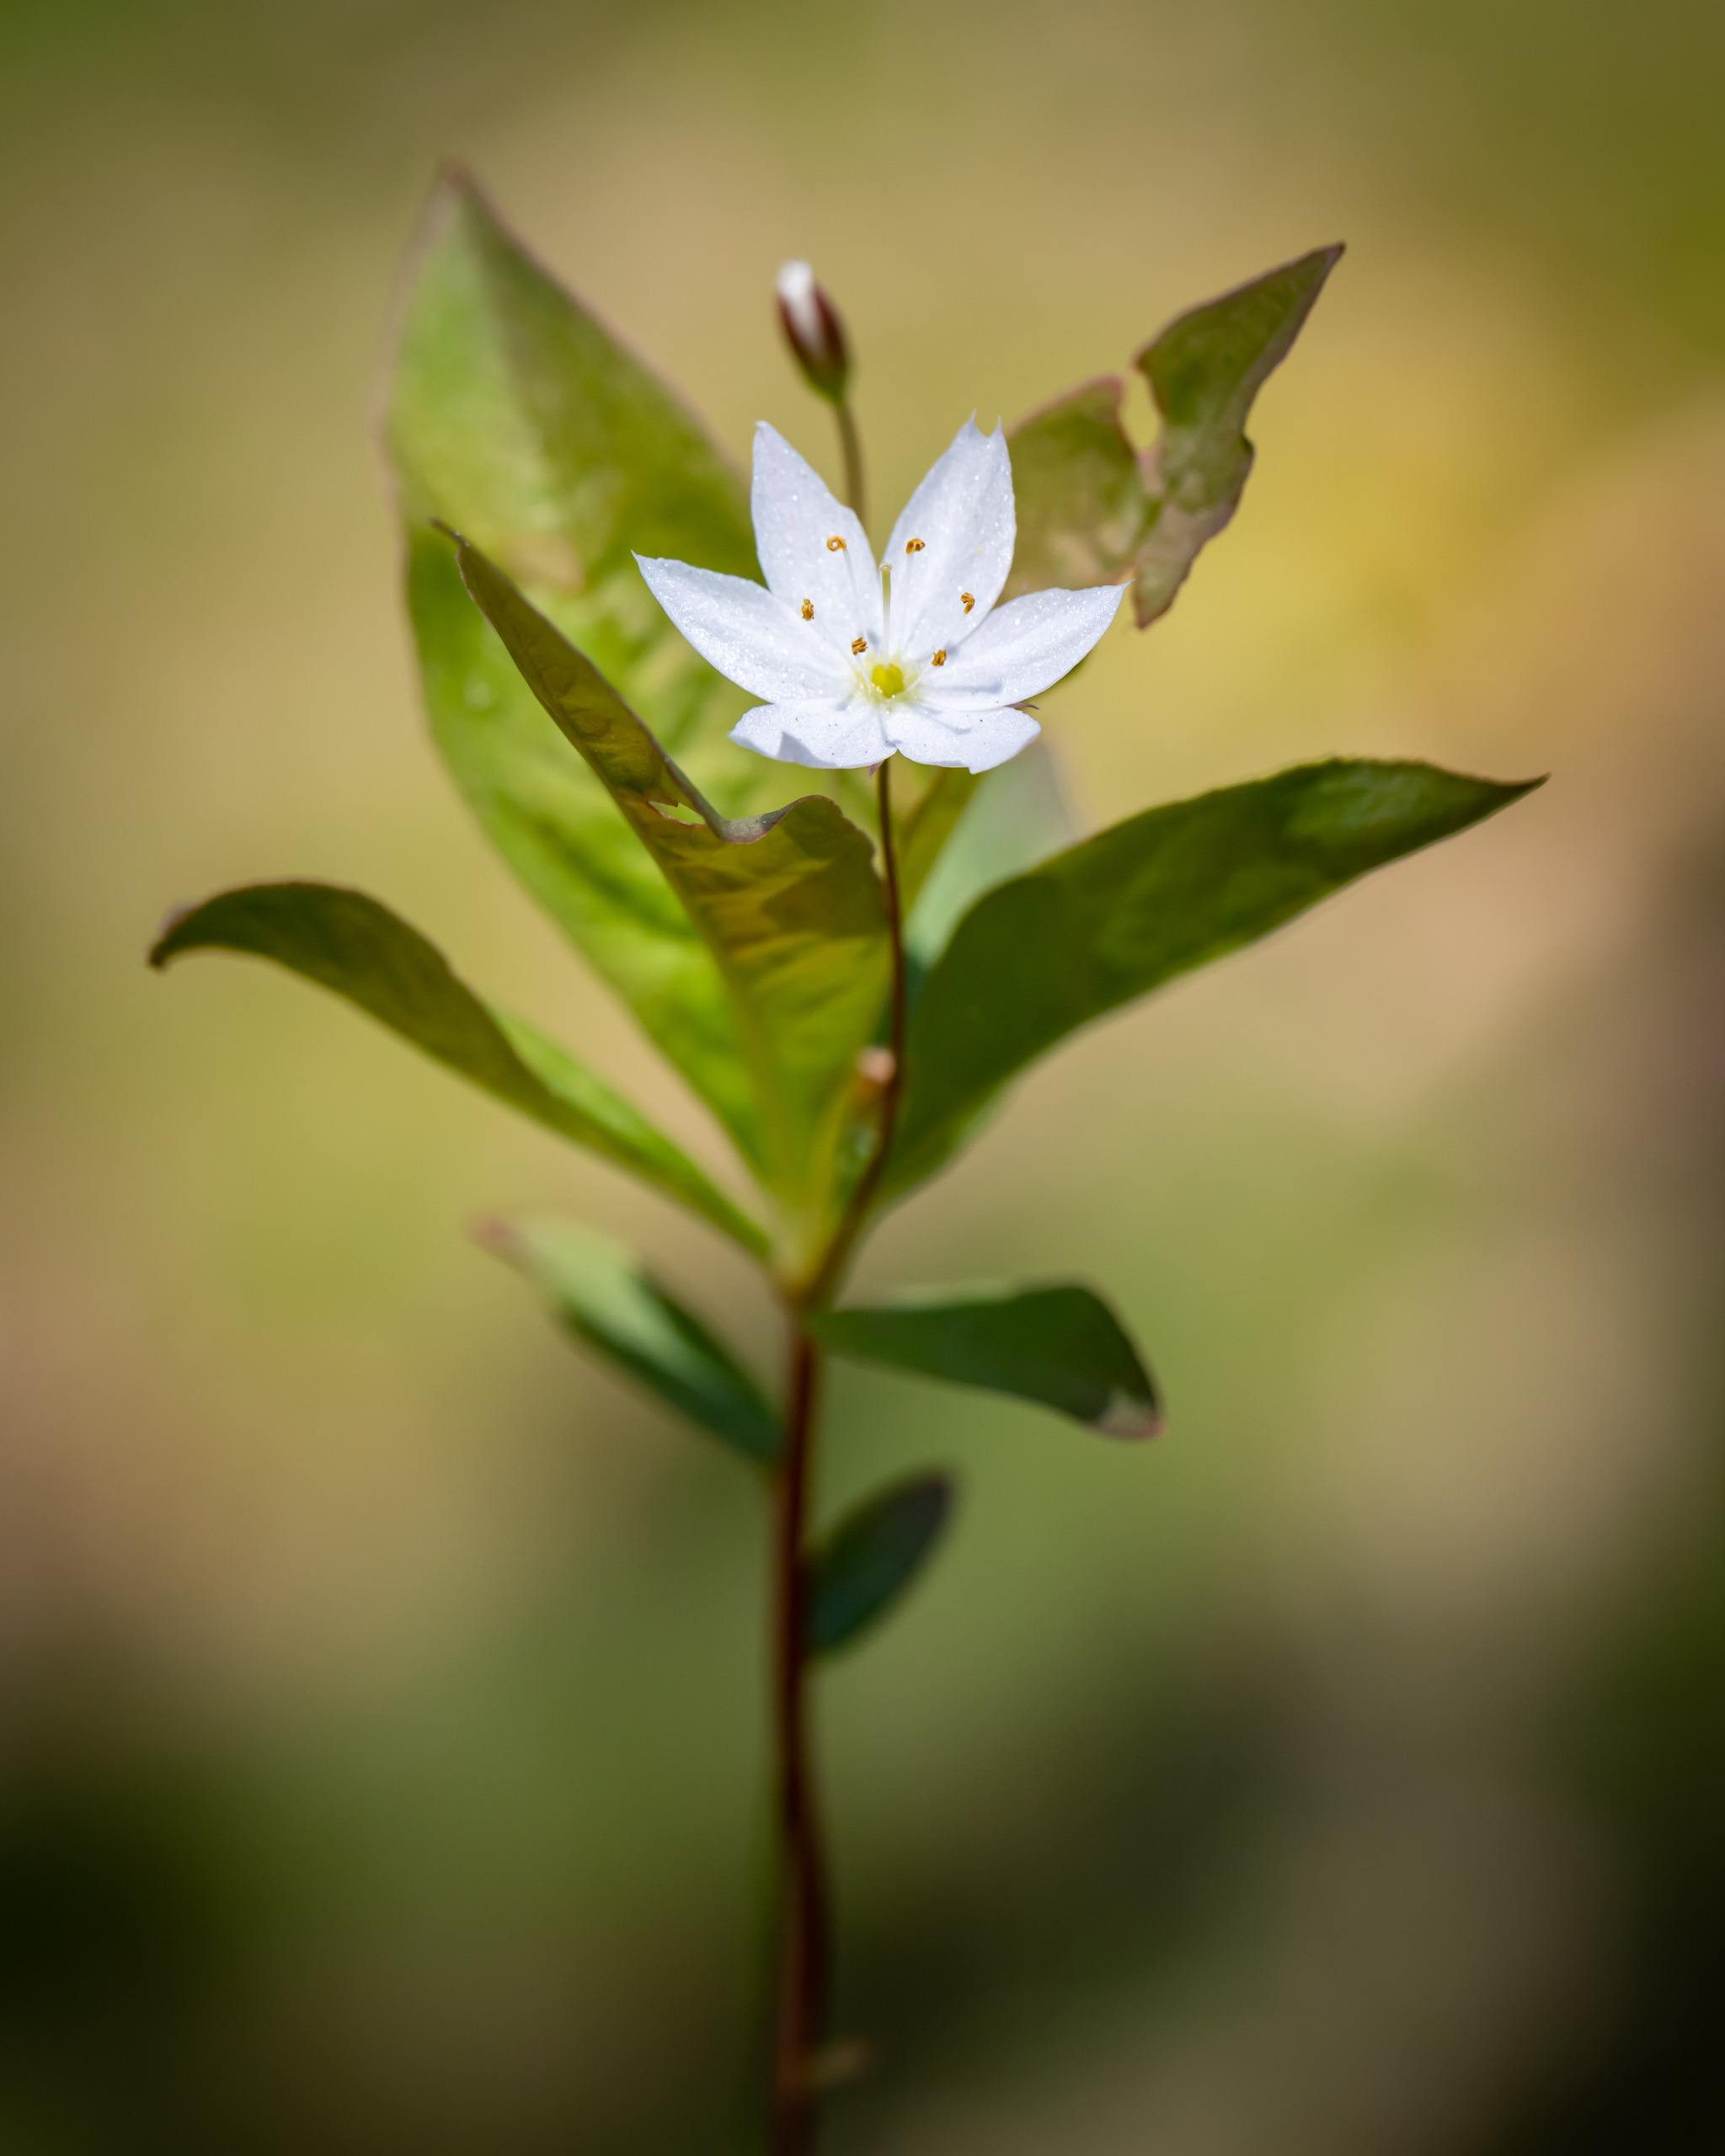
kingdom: Plantae
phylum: Tracheophyta
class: Magnoliopsida
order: Ericales
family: Primulaceae
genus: Lysimachia
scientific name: Lysimachia europaea
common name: Skovstjerne
